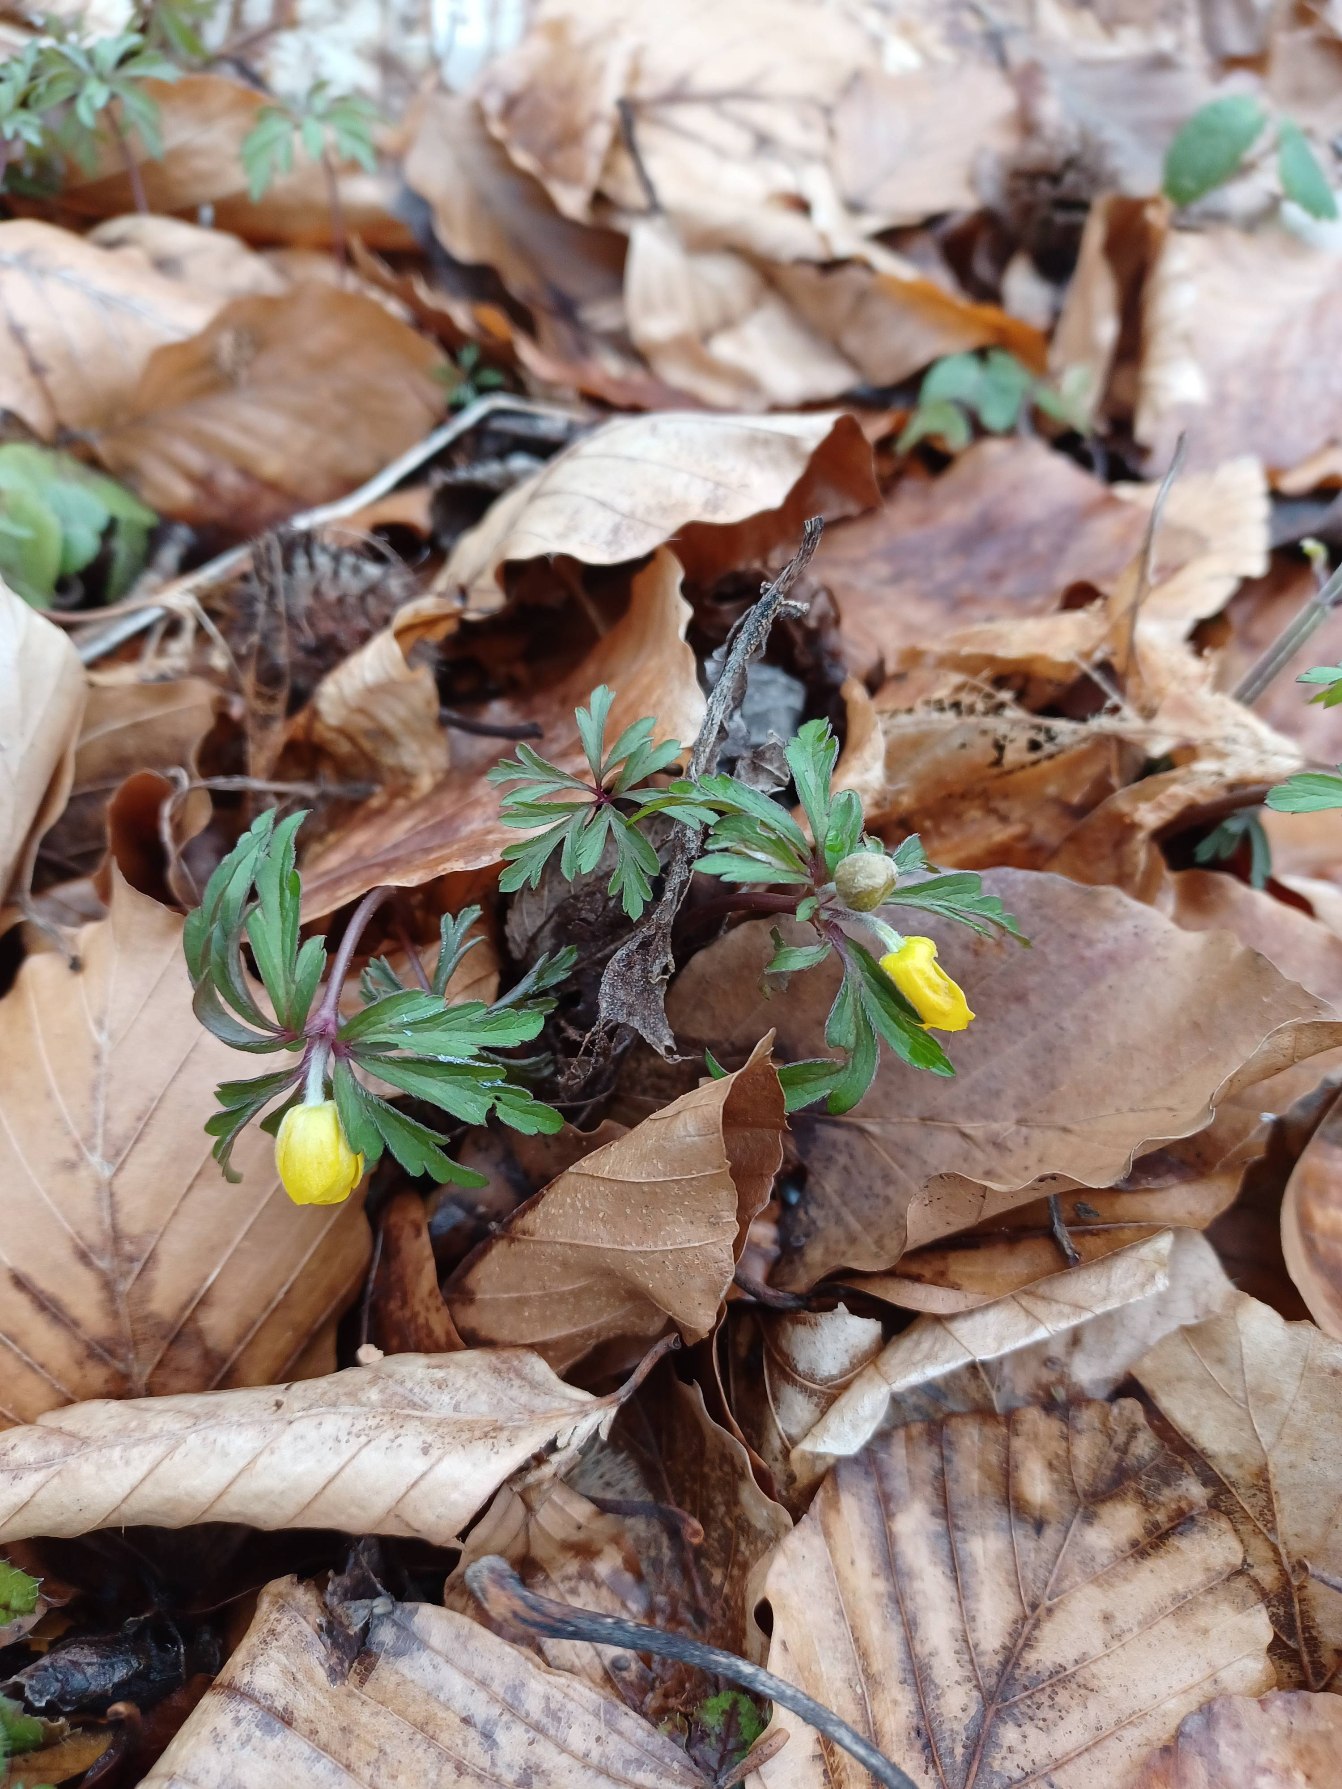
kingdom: Plantae
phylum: Tracheophyta
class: Magnoliopsida
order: Ranunculales
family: Ranunculaceae
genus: Anemone
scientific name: Anemone ranunculoides
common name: Gul anemone
